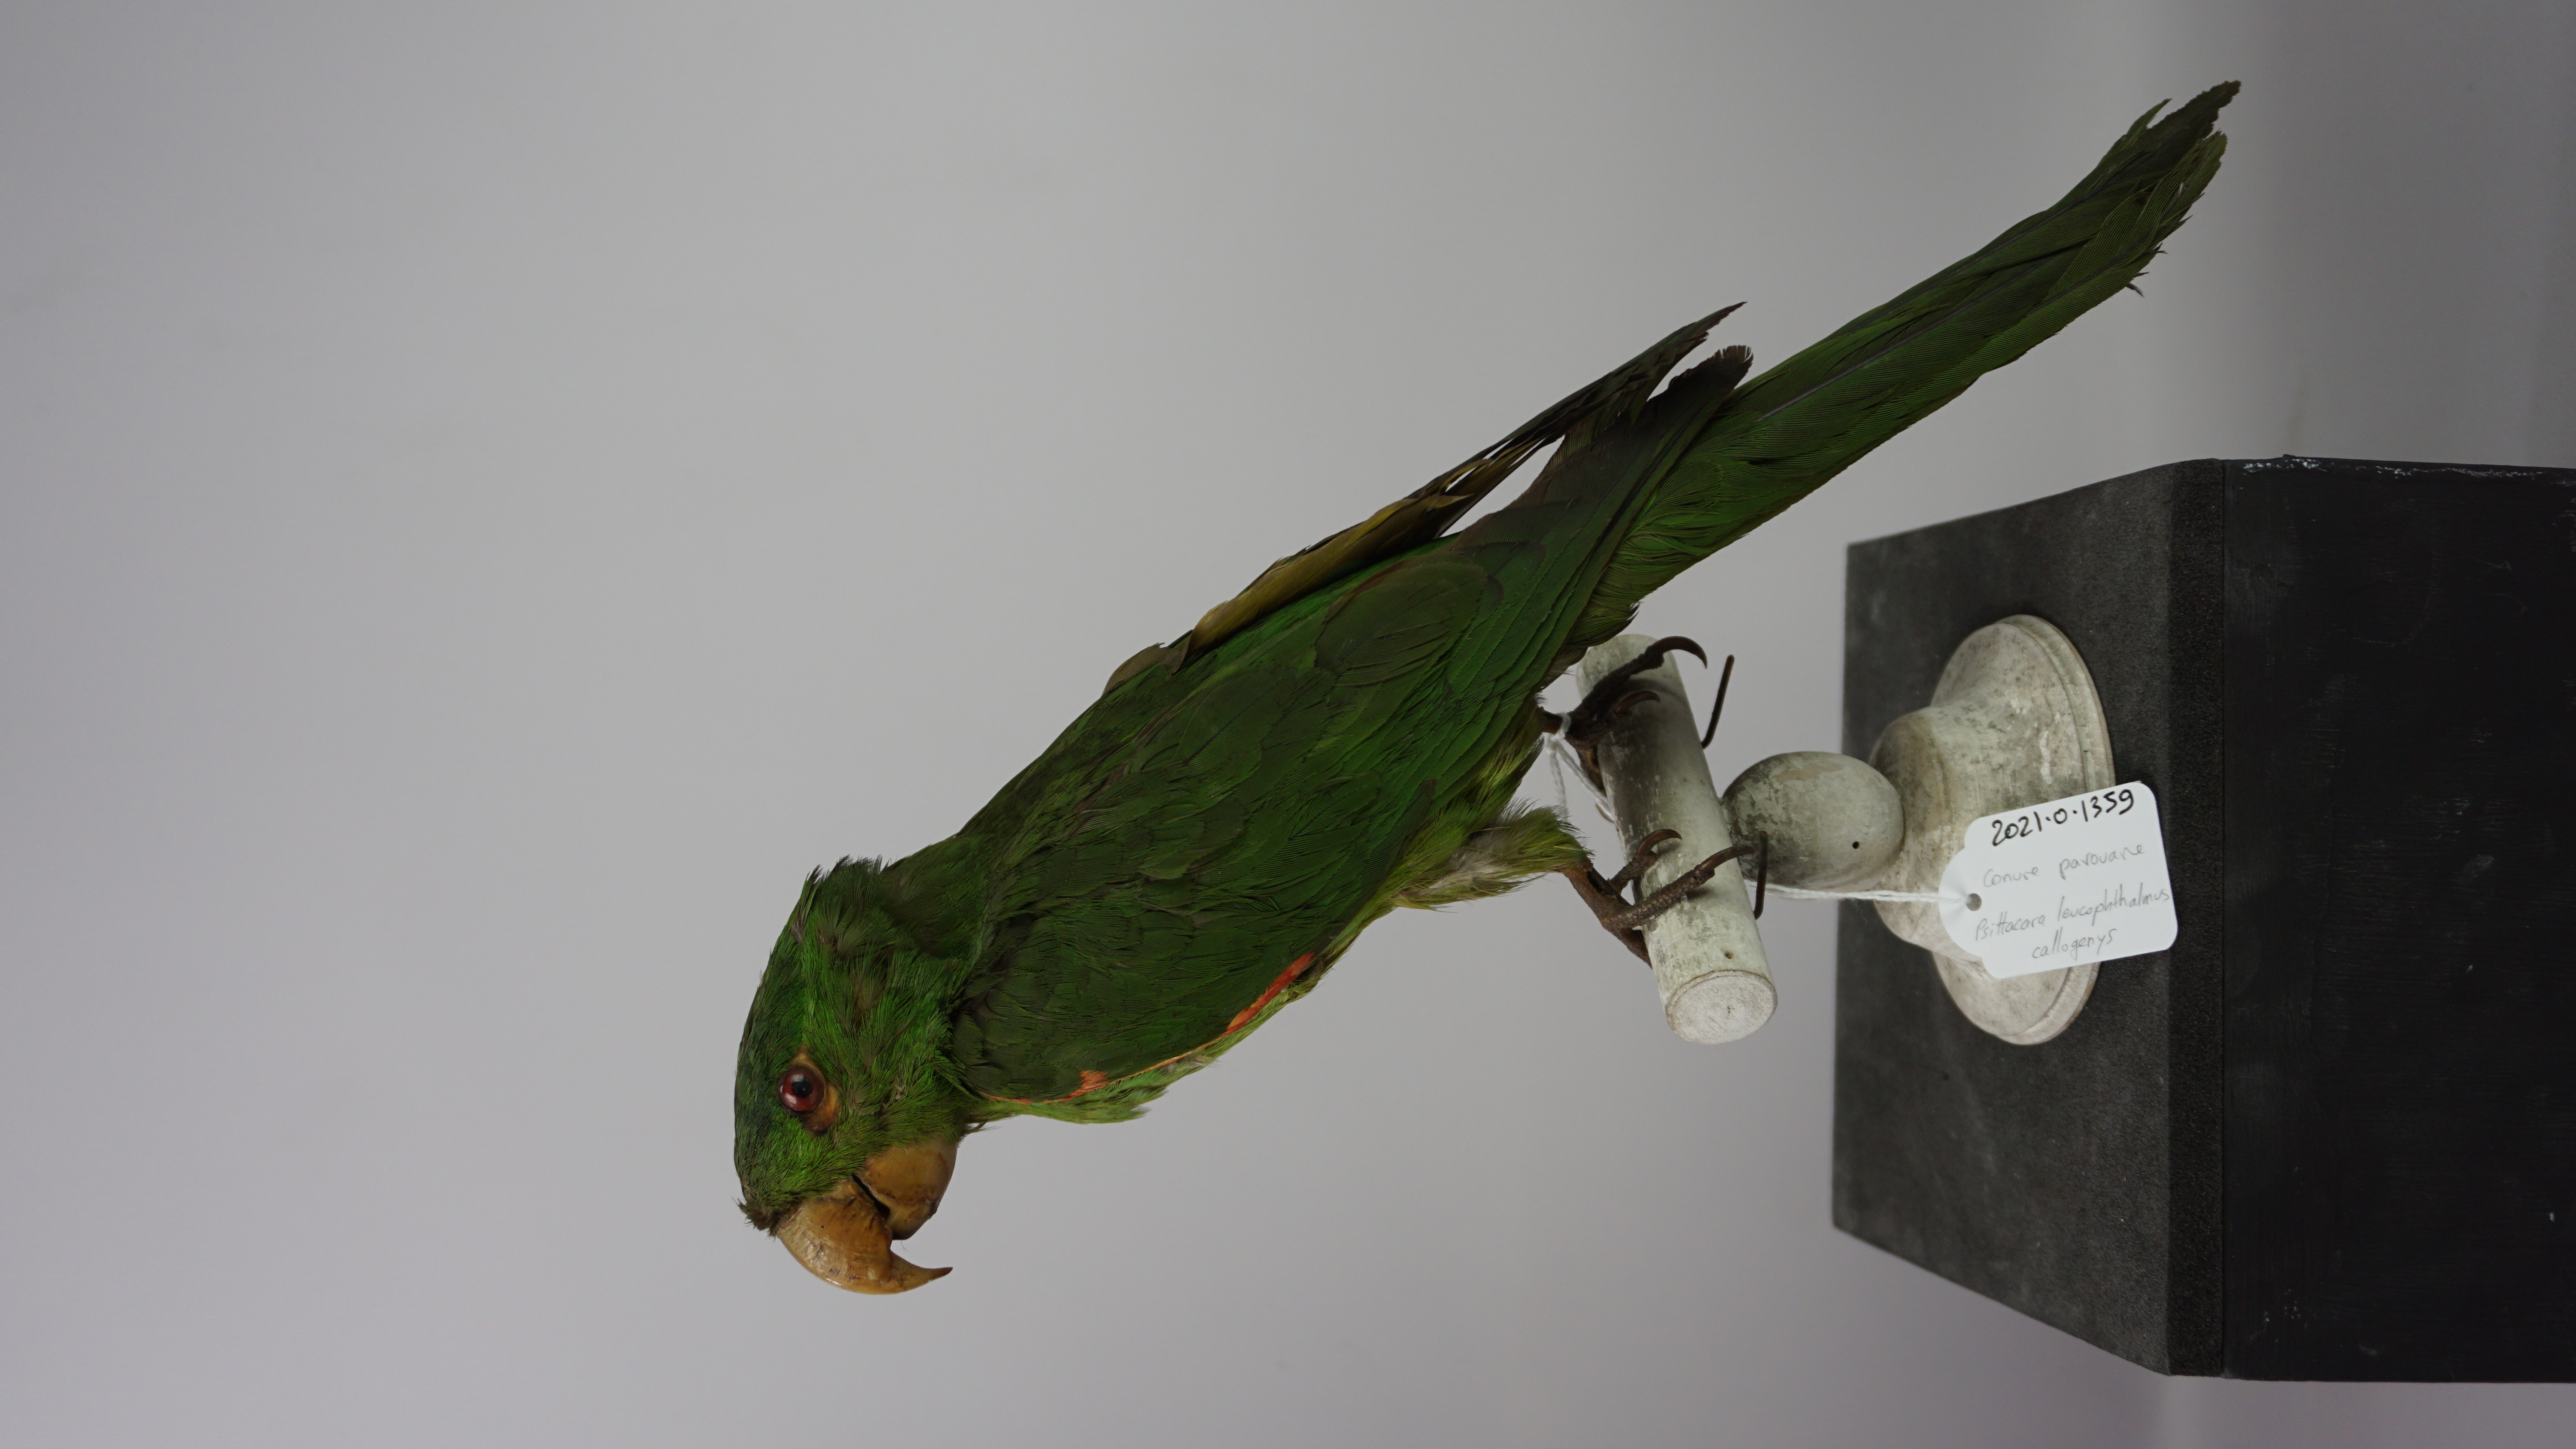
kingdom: Animalia
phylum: Chordata
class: Aves
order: Psittaciformes
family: Psittacidae
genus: Aratinga
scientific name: Aratinga leucophthalma
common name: White-eyed parakeet
